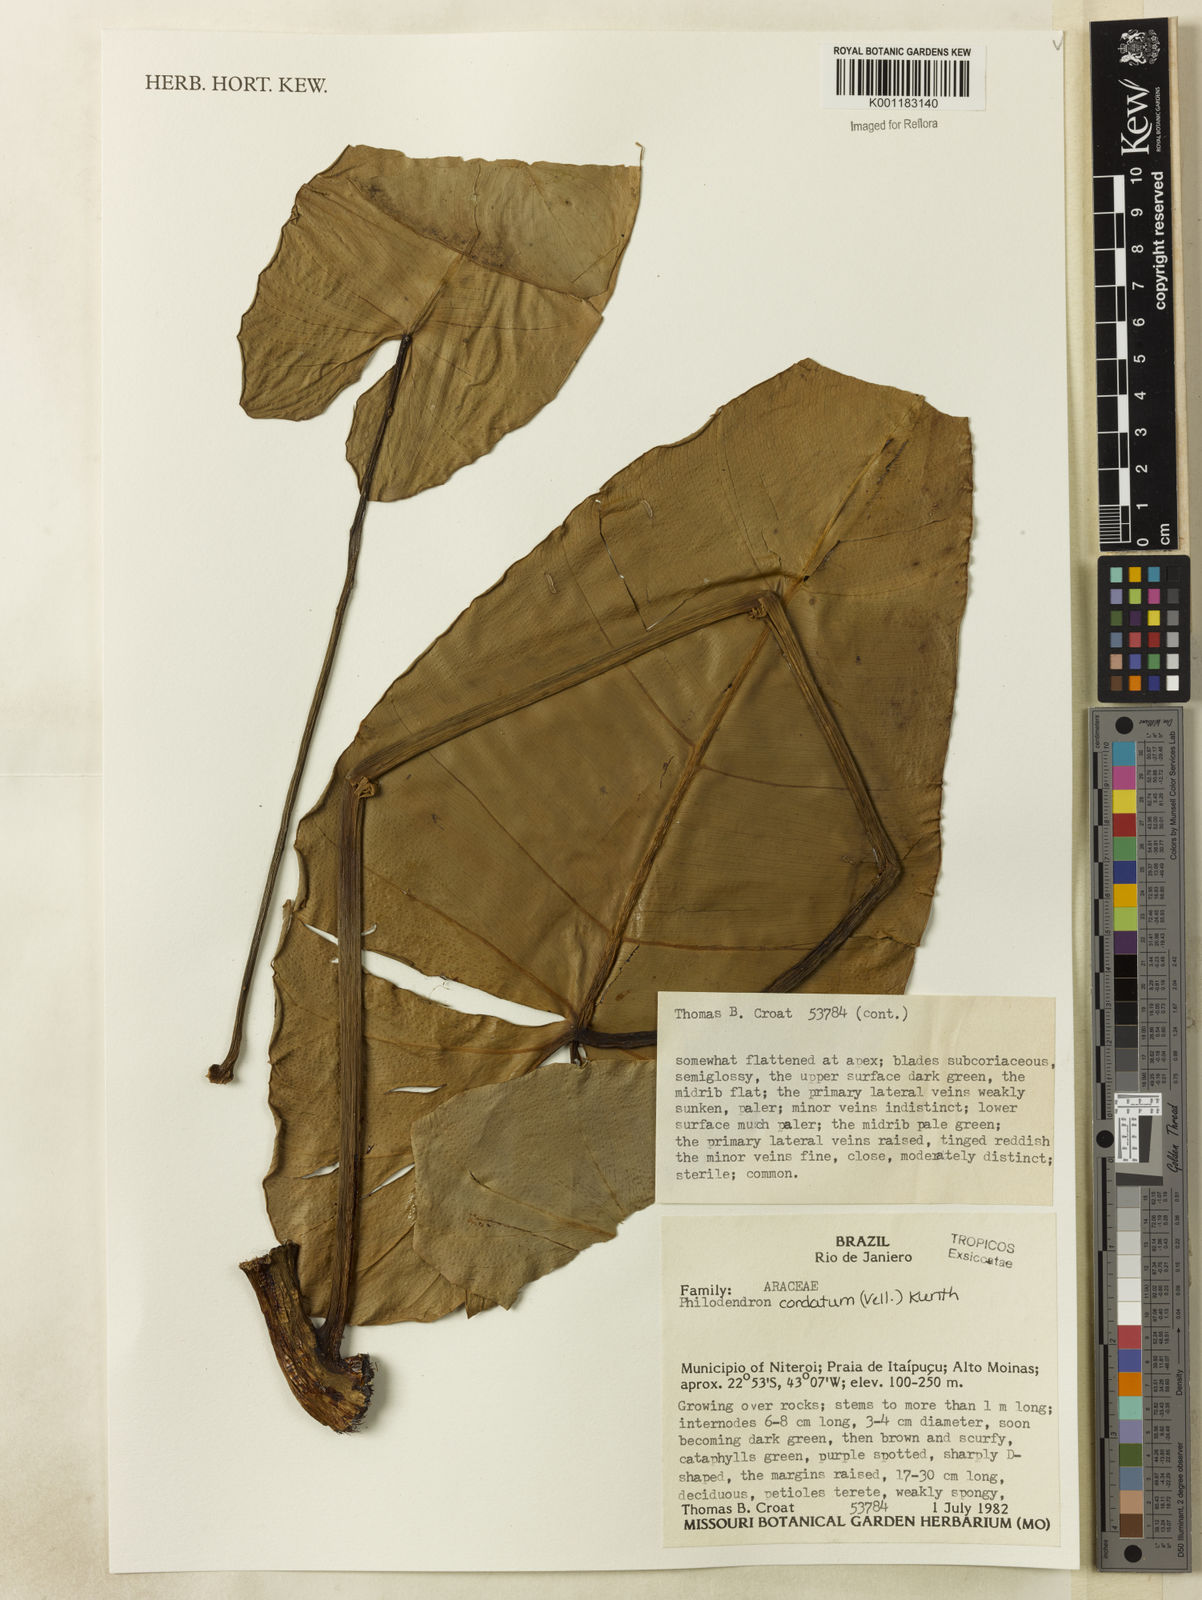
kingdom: Plantae
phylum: Tracheophyta
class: Liliopsida
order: Alismatales
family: Araceae
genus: Philodendron
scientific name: Philodendron cordatum
